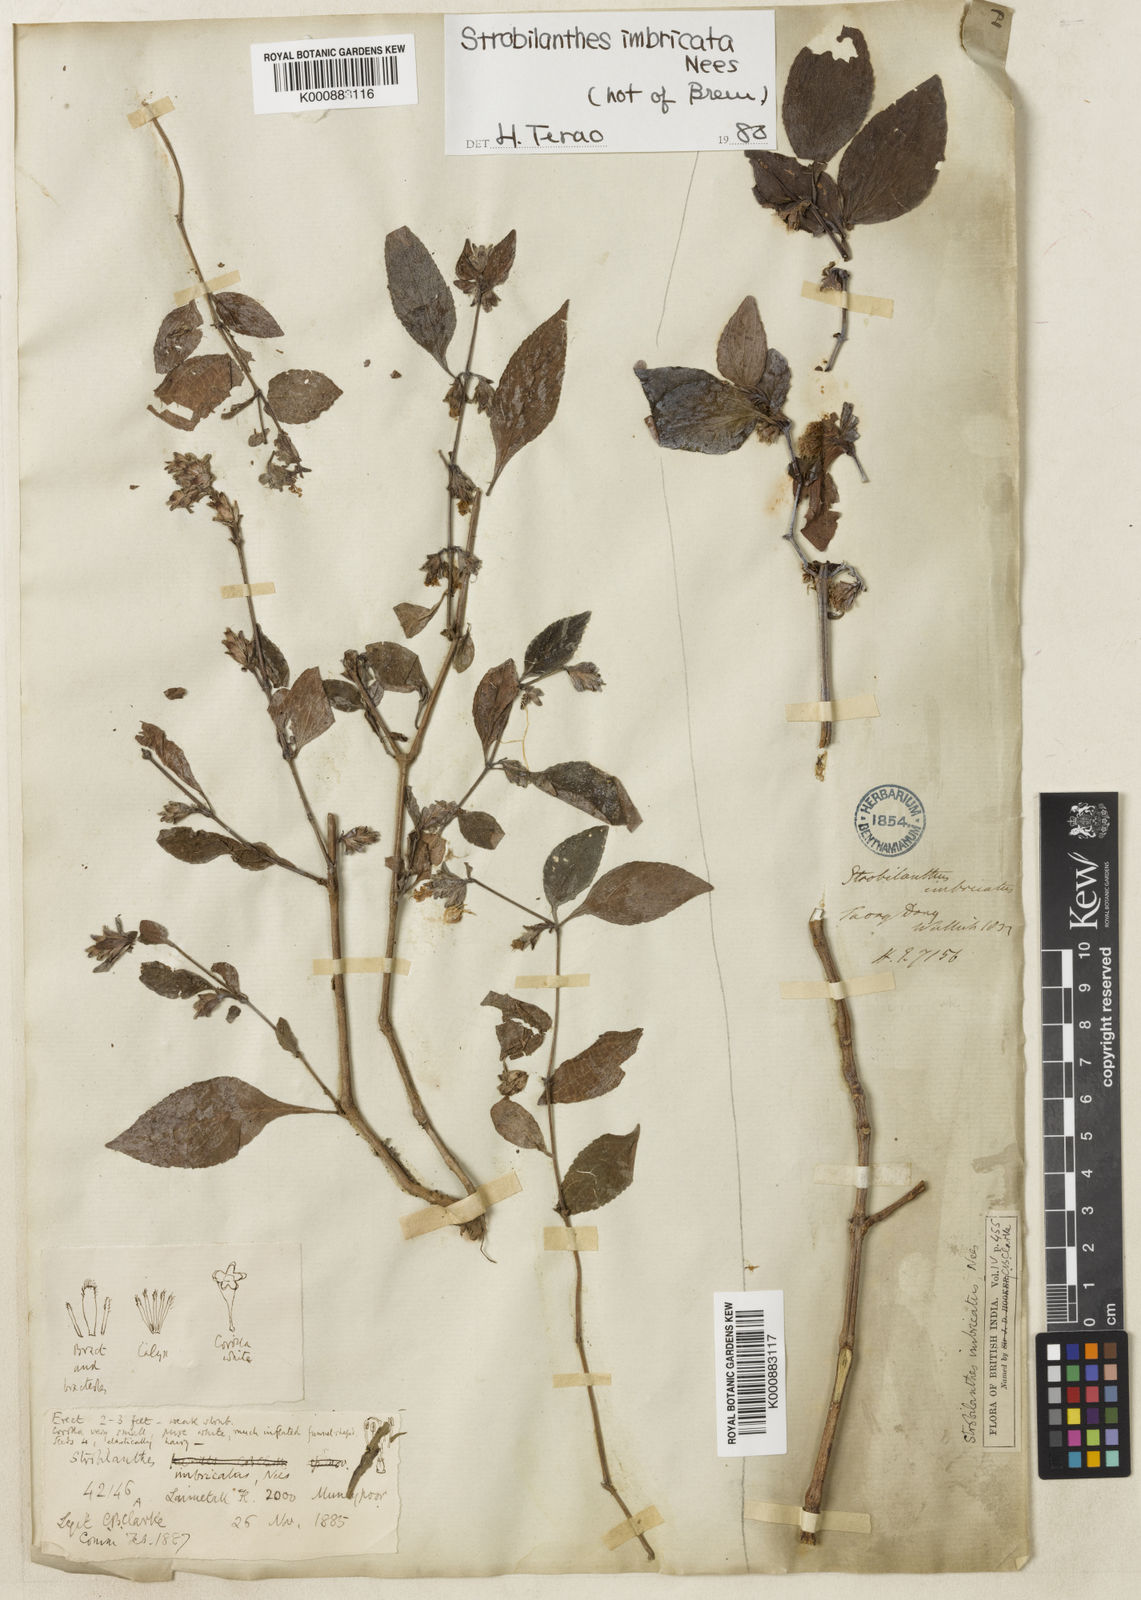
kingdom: Plantae
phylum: Tracheophyta
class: Magnoliopsida
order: Lamiales
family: Acanthaceae
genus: Strobilanthes
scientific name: Strobilanthes imbricata
